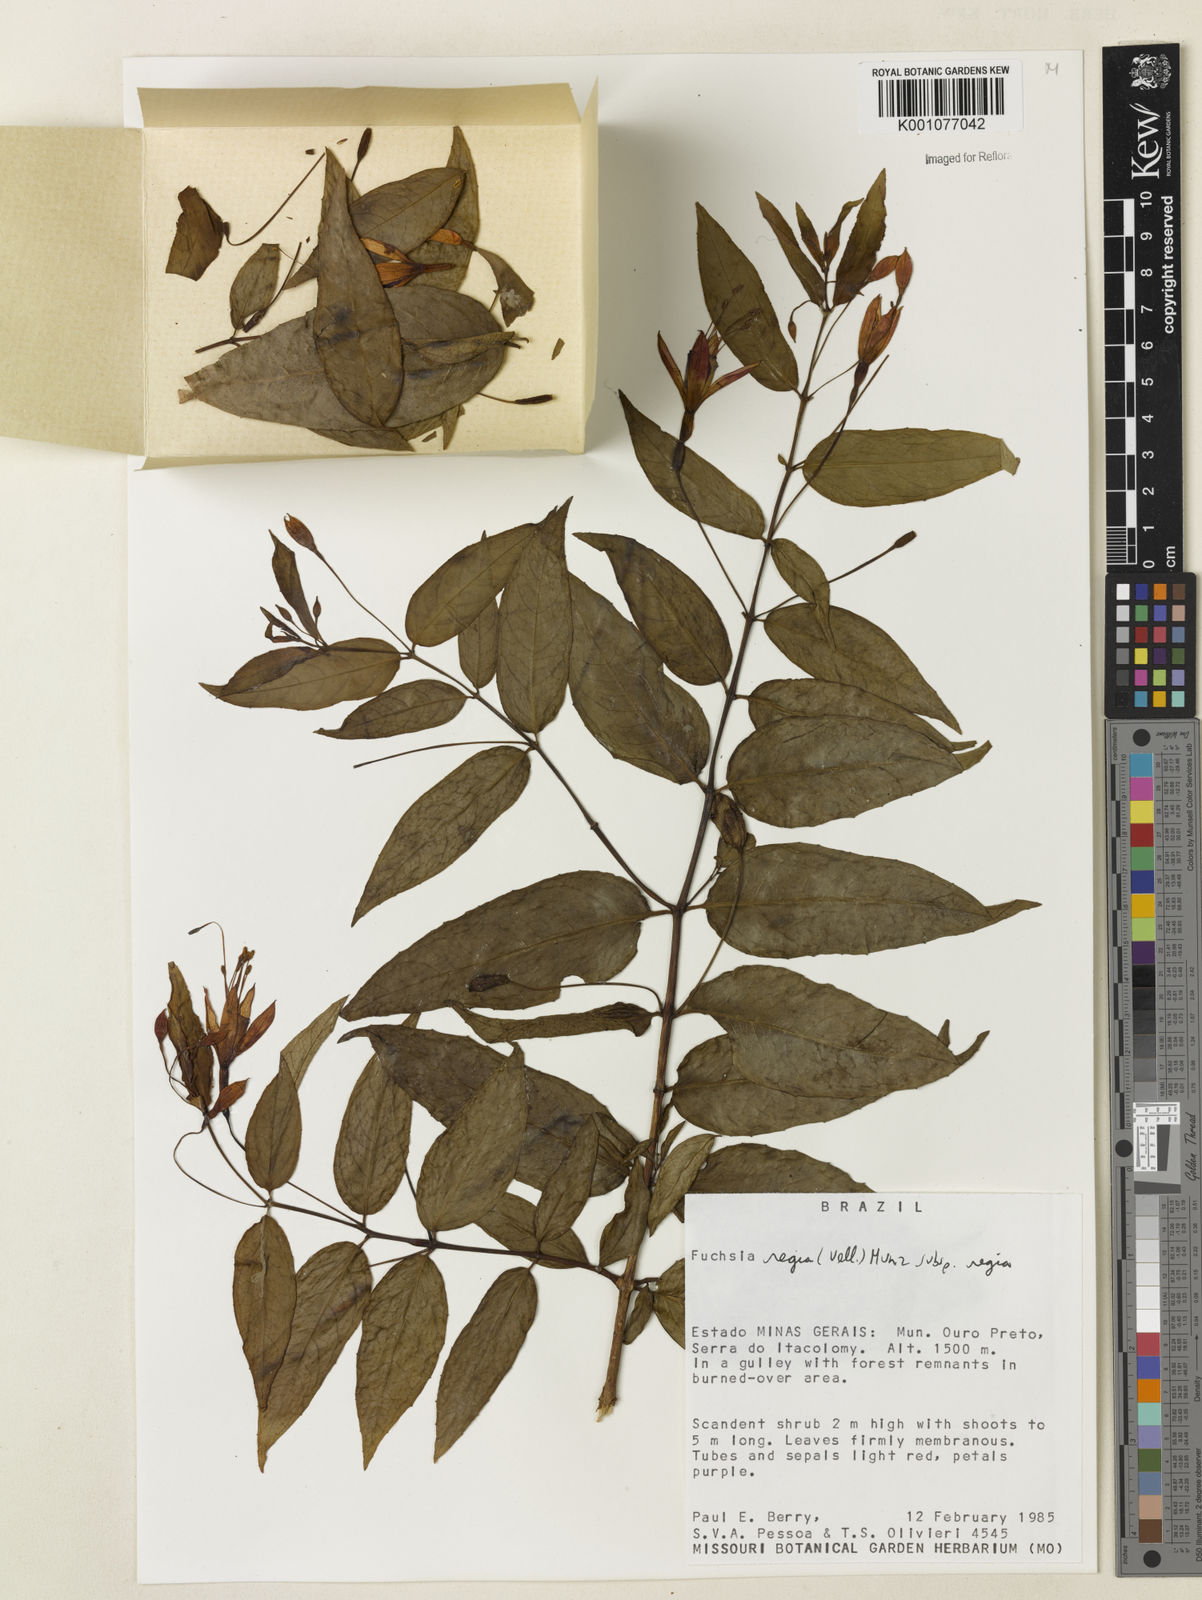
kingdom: Plantae
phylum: Tracheophyta
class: Magnoliopsida
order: Myrtales
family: Onagraceae
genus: Fuchsia
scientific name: Fuchsia regia
